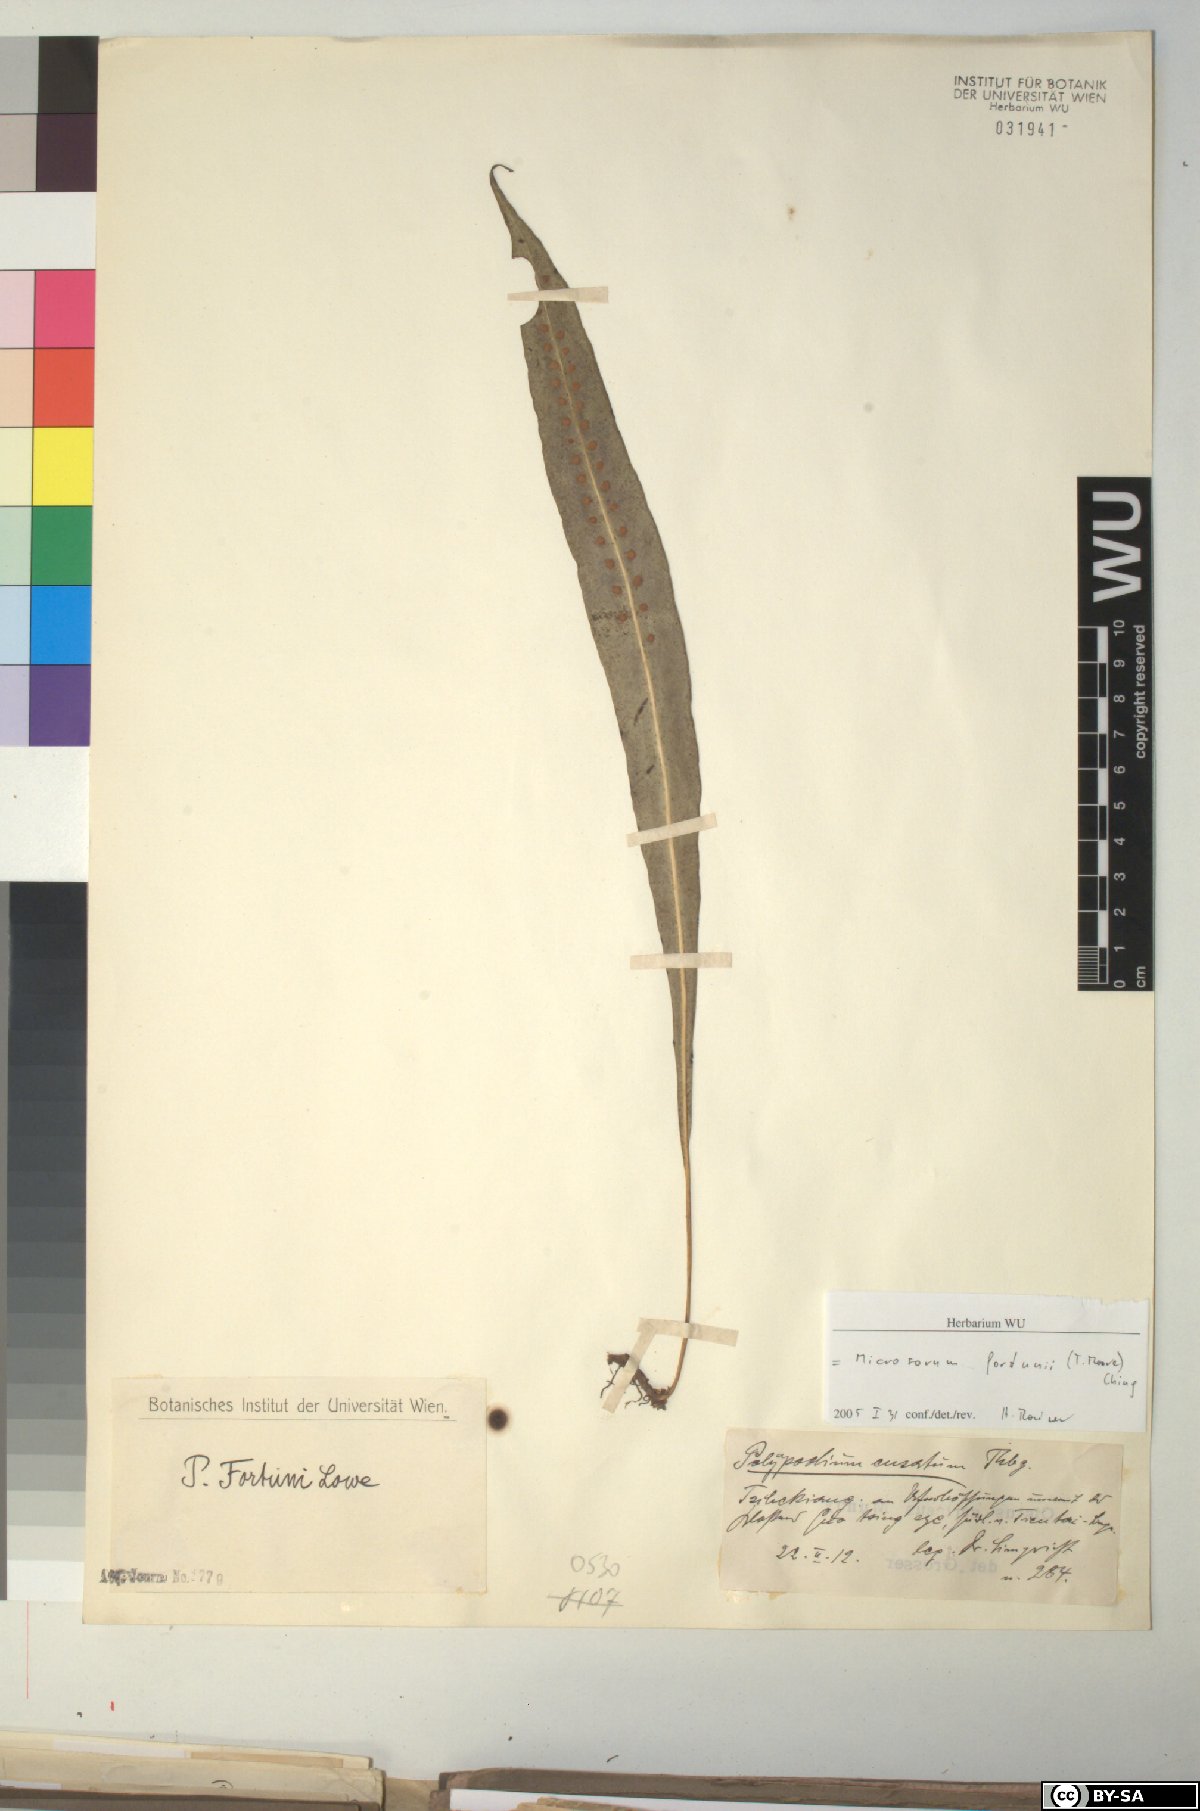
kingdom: Plantae
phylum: Tracheophyta
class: Polypodiopsida
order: Polypodiales
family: Polypodiaceae
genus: Lepisorus
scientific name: Lepisorus fortuni
